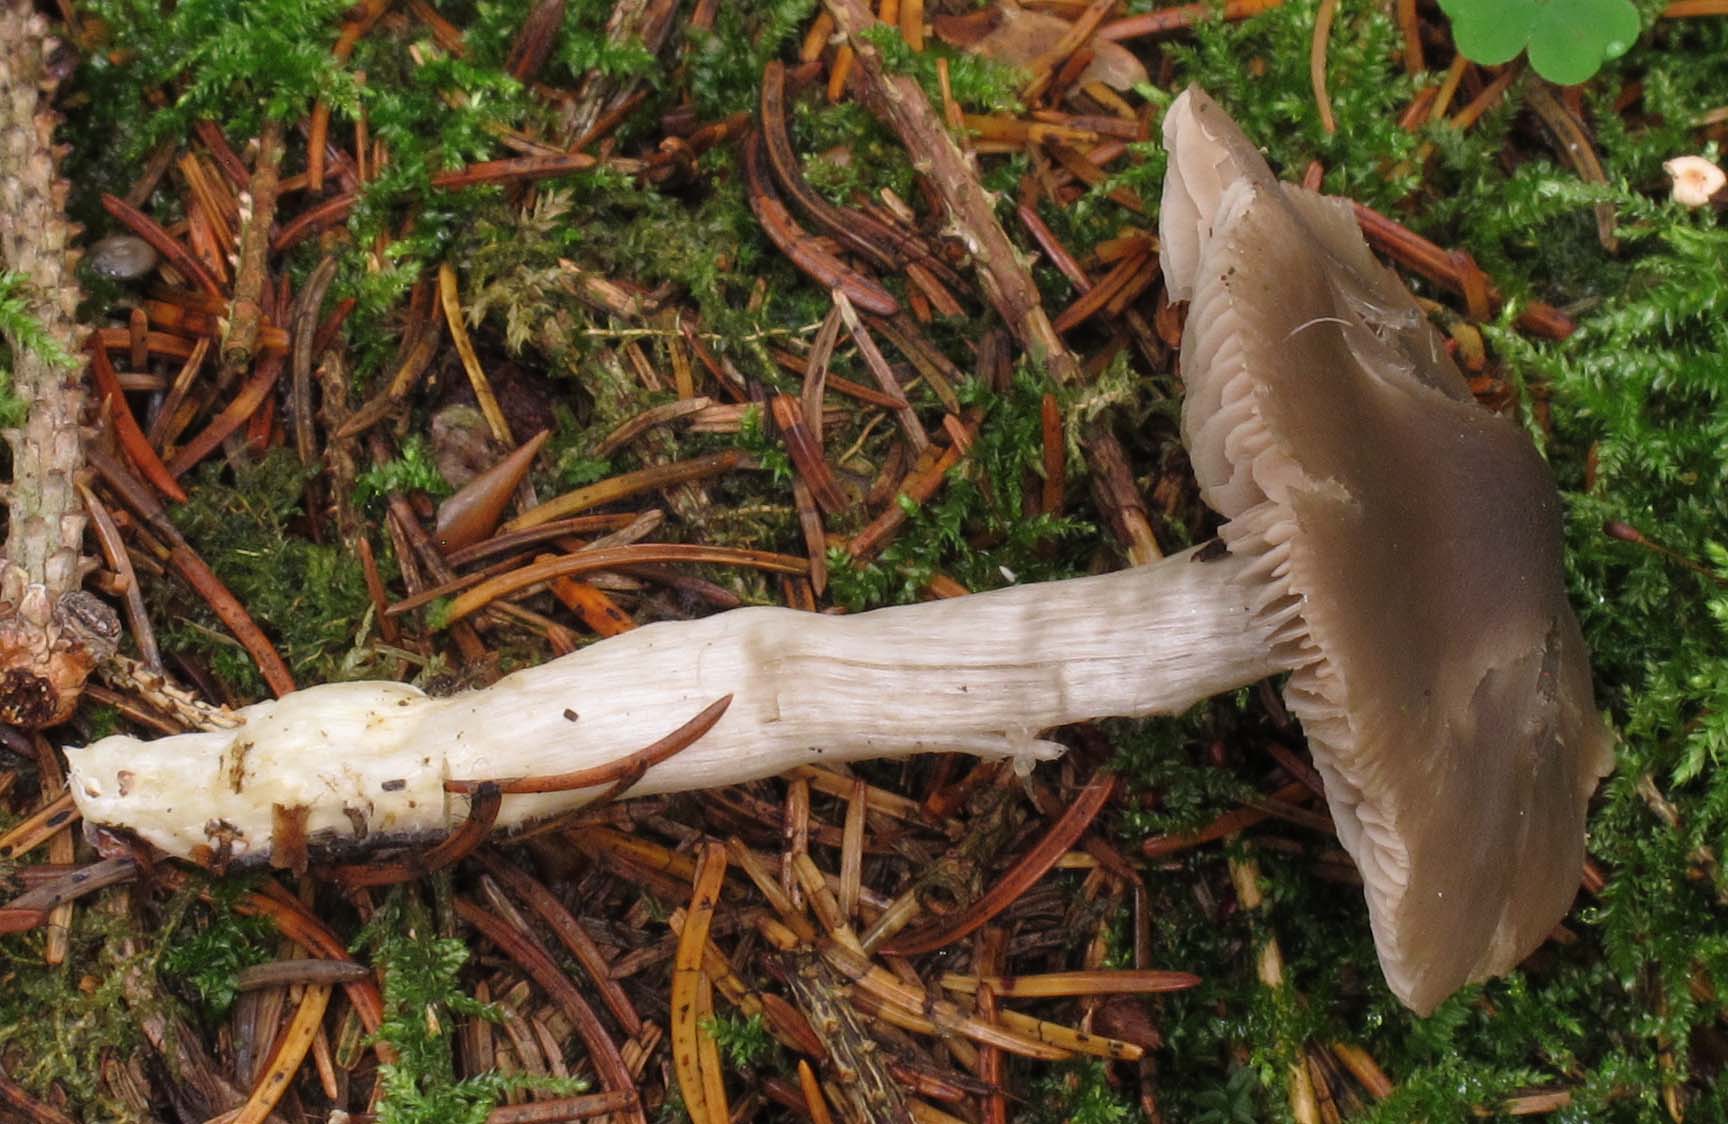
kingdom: Fungi
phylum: Basidiomycota
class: Agaricomycetes
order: Agaricales
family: Entolomataceae
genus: Entocybe
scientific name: Entocybe turbida
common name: plantage-rødblad
